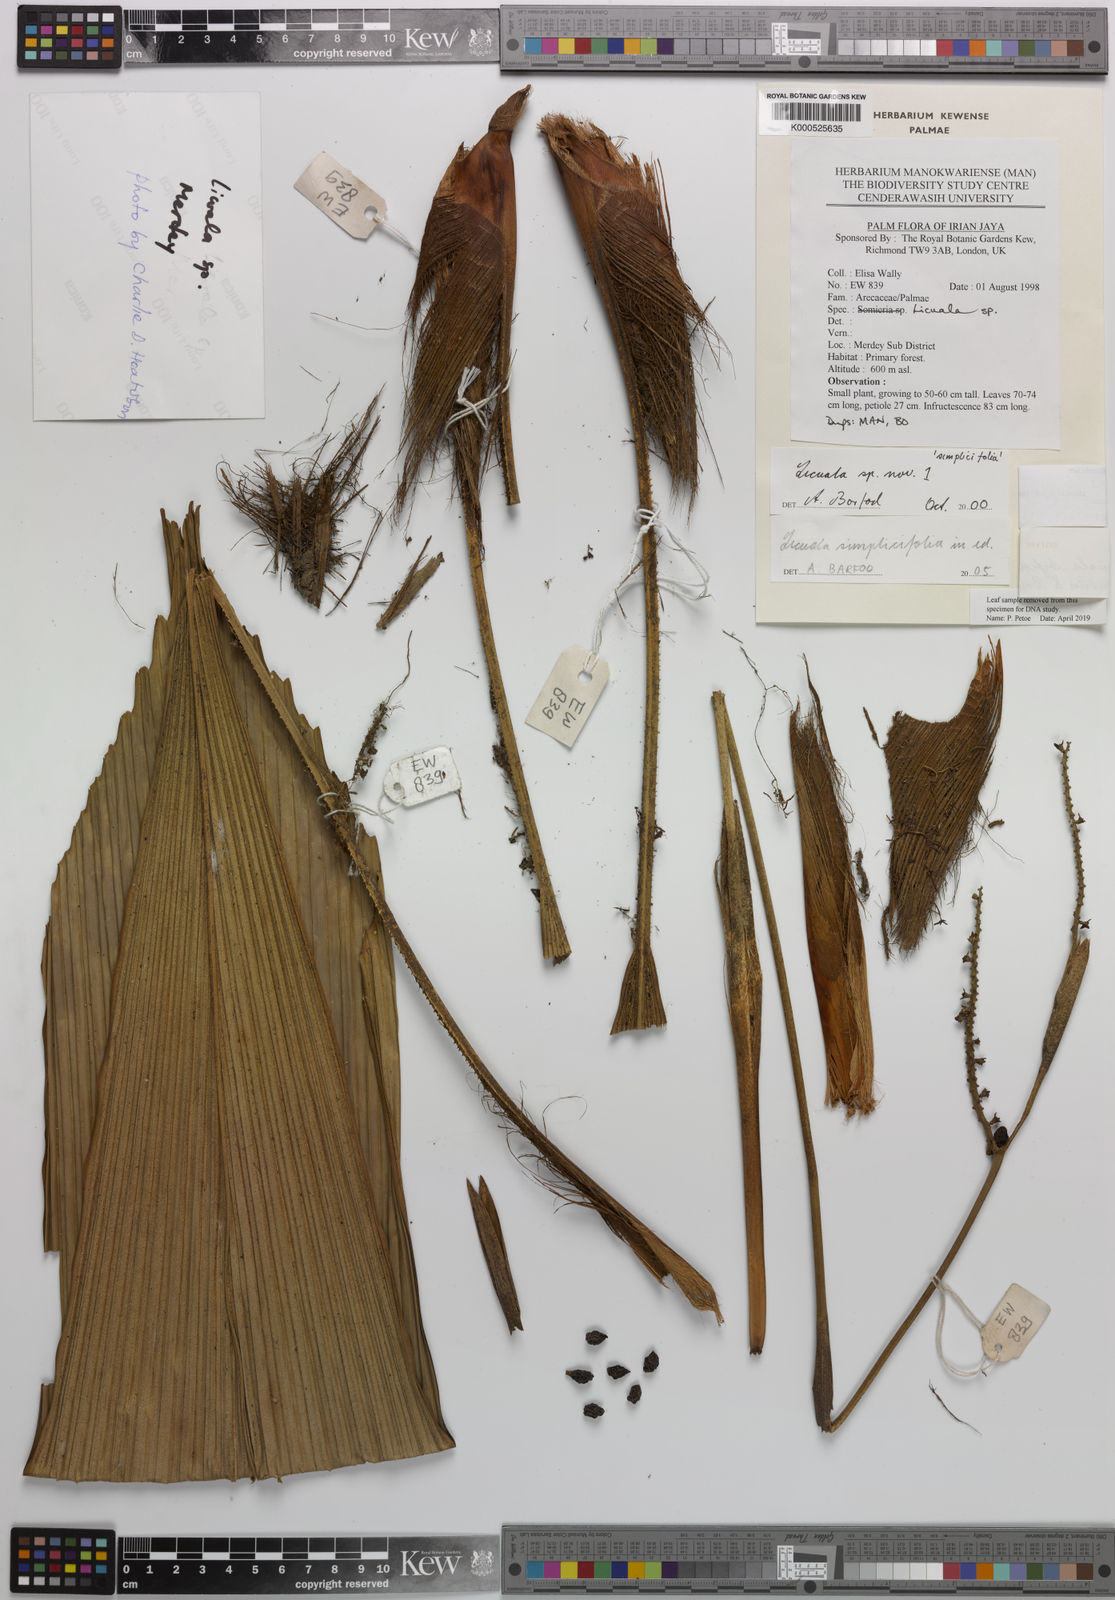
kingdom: Plantae
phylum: Tracheophyta
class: Liliopsida
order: Arecales
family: Arecaceae
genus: Licuala
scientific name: Licuala bifida
